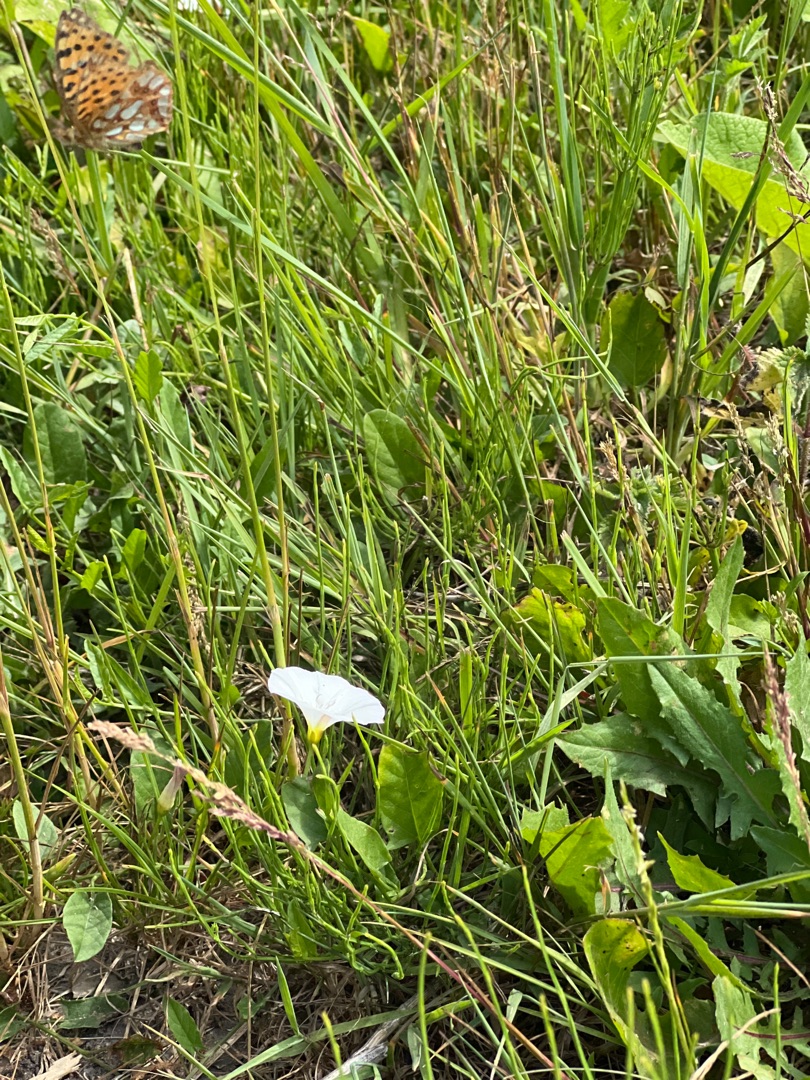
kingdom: Animalia
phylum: Arthropoda
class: Insecta
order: Lepidoptera
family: Nymphalidae
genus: Issoria
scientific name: Issoria lathonia
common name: Storplettet perlemorsommerfugl
